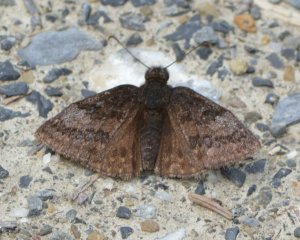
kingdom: Animalia
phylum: Arthropoda
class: Insecta
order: Lepidoptera
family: Hesperiidae
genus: Erynnis
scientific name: Erynnis icelus
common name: Dreamy Duskywing
